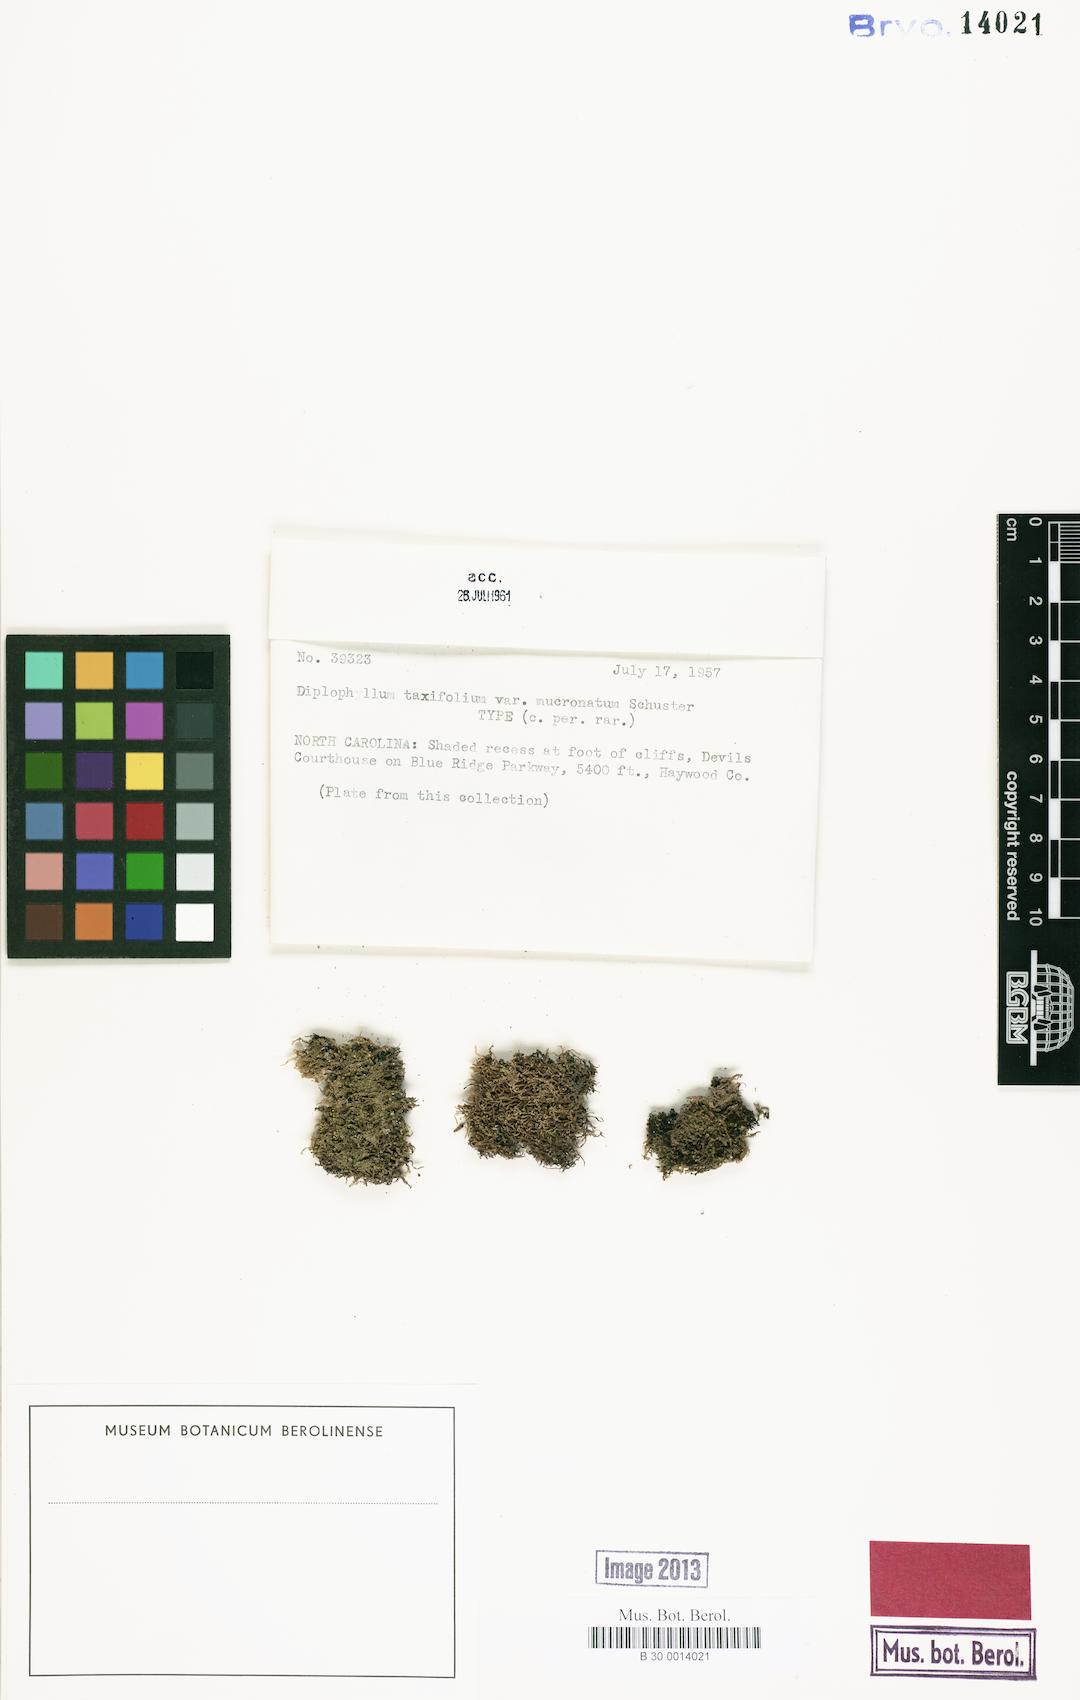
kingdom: Plantae
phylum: Marchantiophyta
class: Jungermanniopsida
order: Jungermanniales
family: Scapaniaceae
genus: Diplophyllum
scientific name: Diplophyllum taxifolium
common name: Alpine earwort
